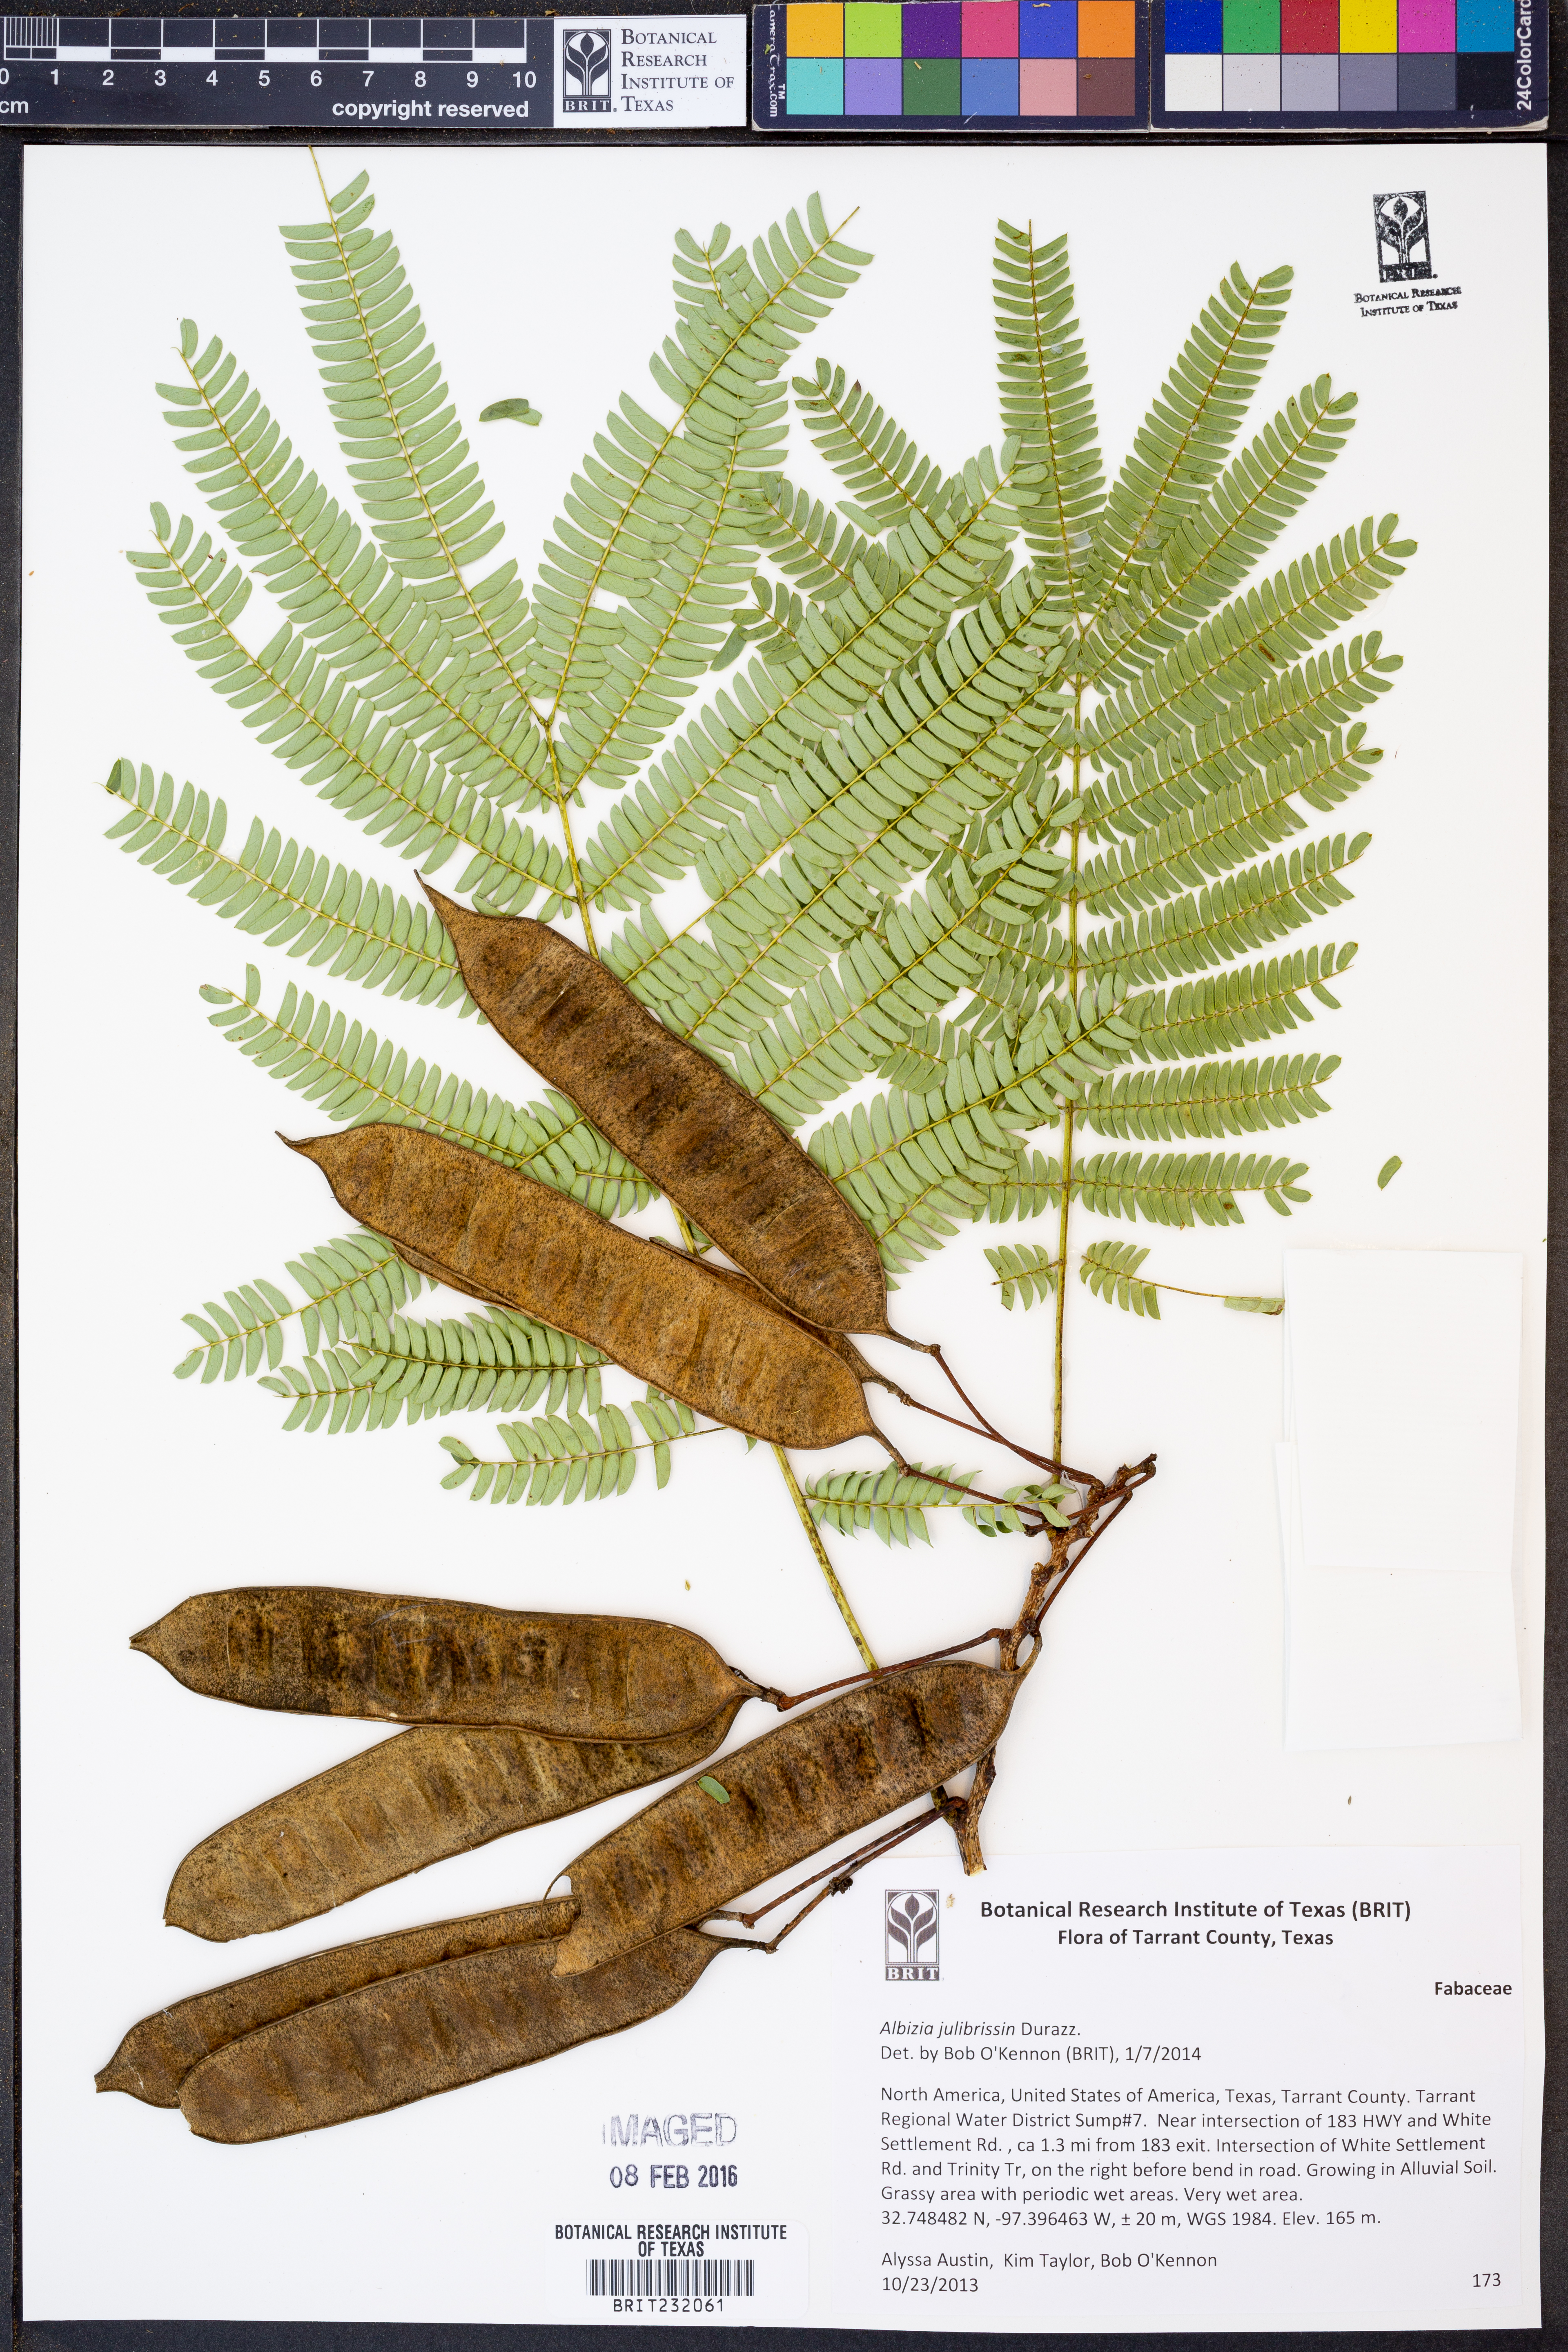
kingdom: Plantae
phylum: Tracheophyta
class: Magnoliopsida
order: Fabales
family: Fabaceae
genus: Albizia
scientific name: Albizia julibrissin
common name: Silktree
